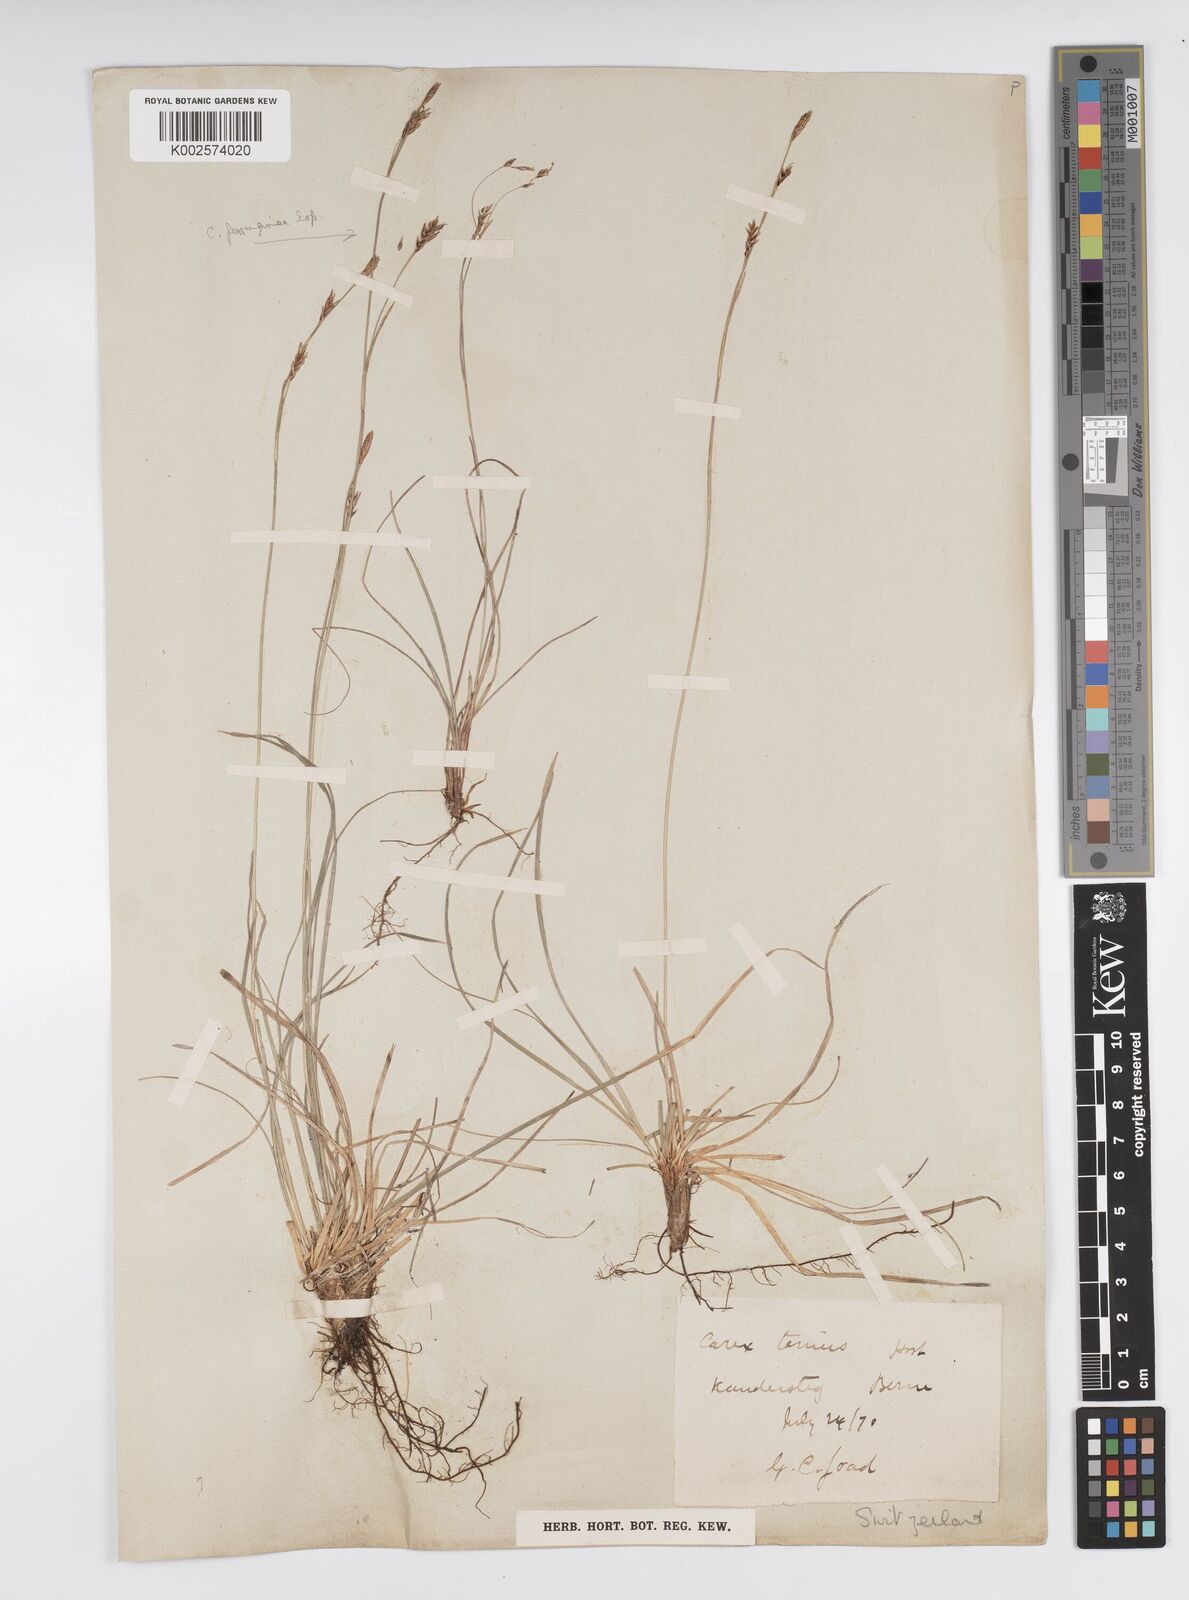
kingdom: Plantae
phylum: Tracheophyta
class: Liliopsida
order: Poales
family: Cyperaceae
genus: Carex
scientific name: Carex brachystachys
